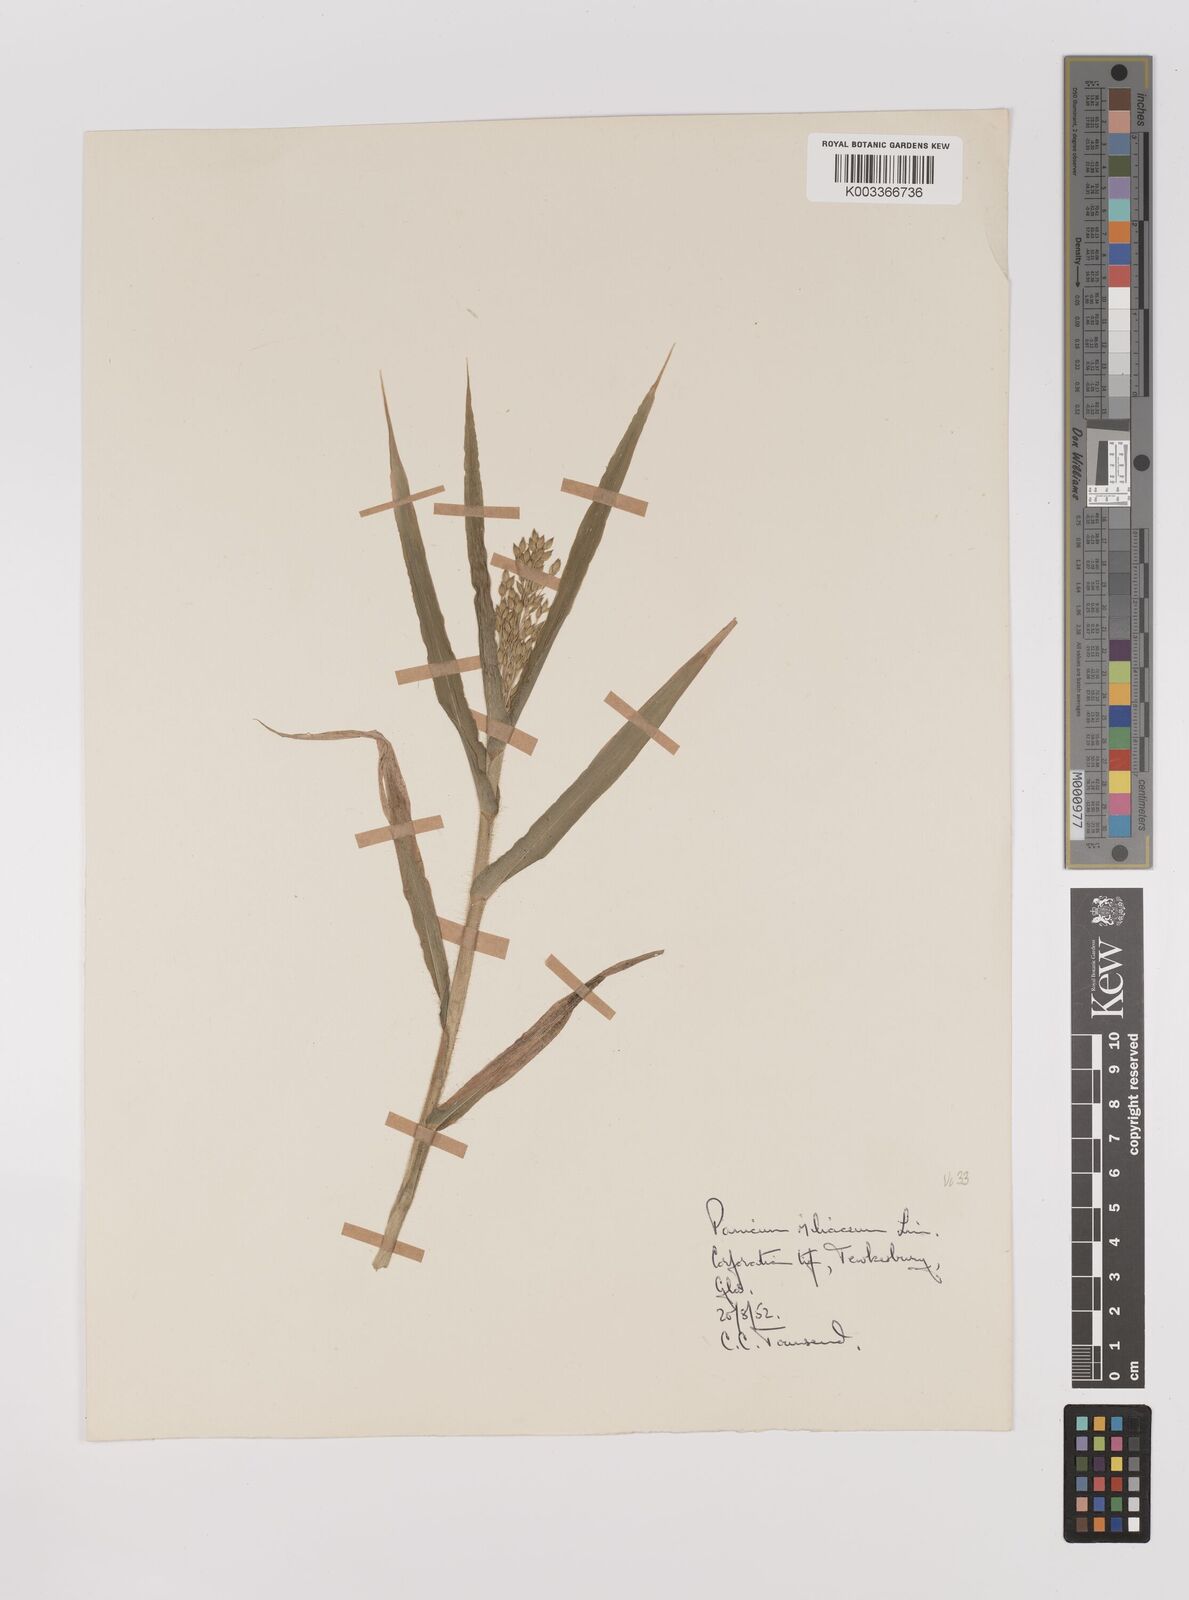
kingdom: Plantae
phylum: Tracheophyta
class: Liliopsida
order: Poales
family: Poaceae
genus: Panicum
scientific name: Panicum miliaceum
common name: Common millet
